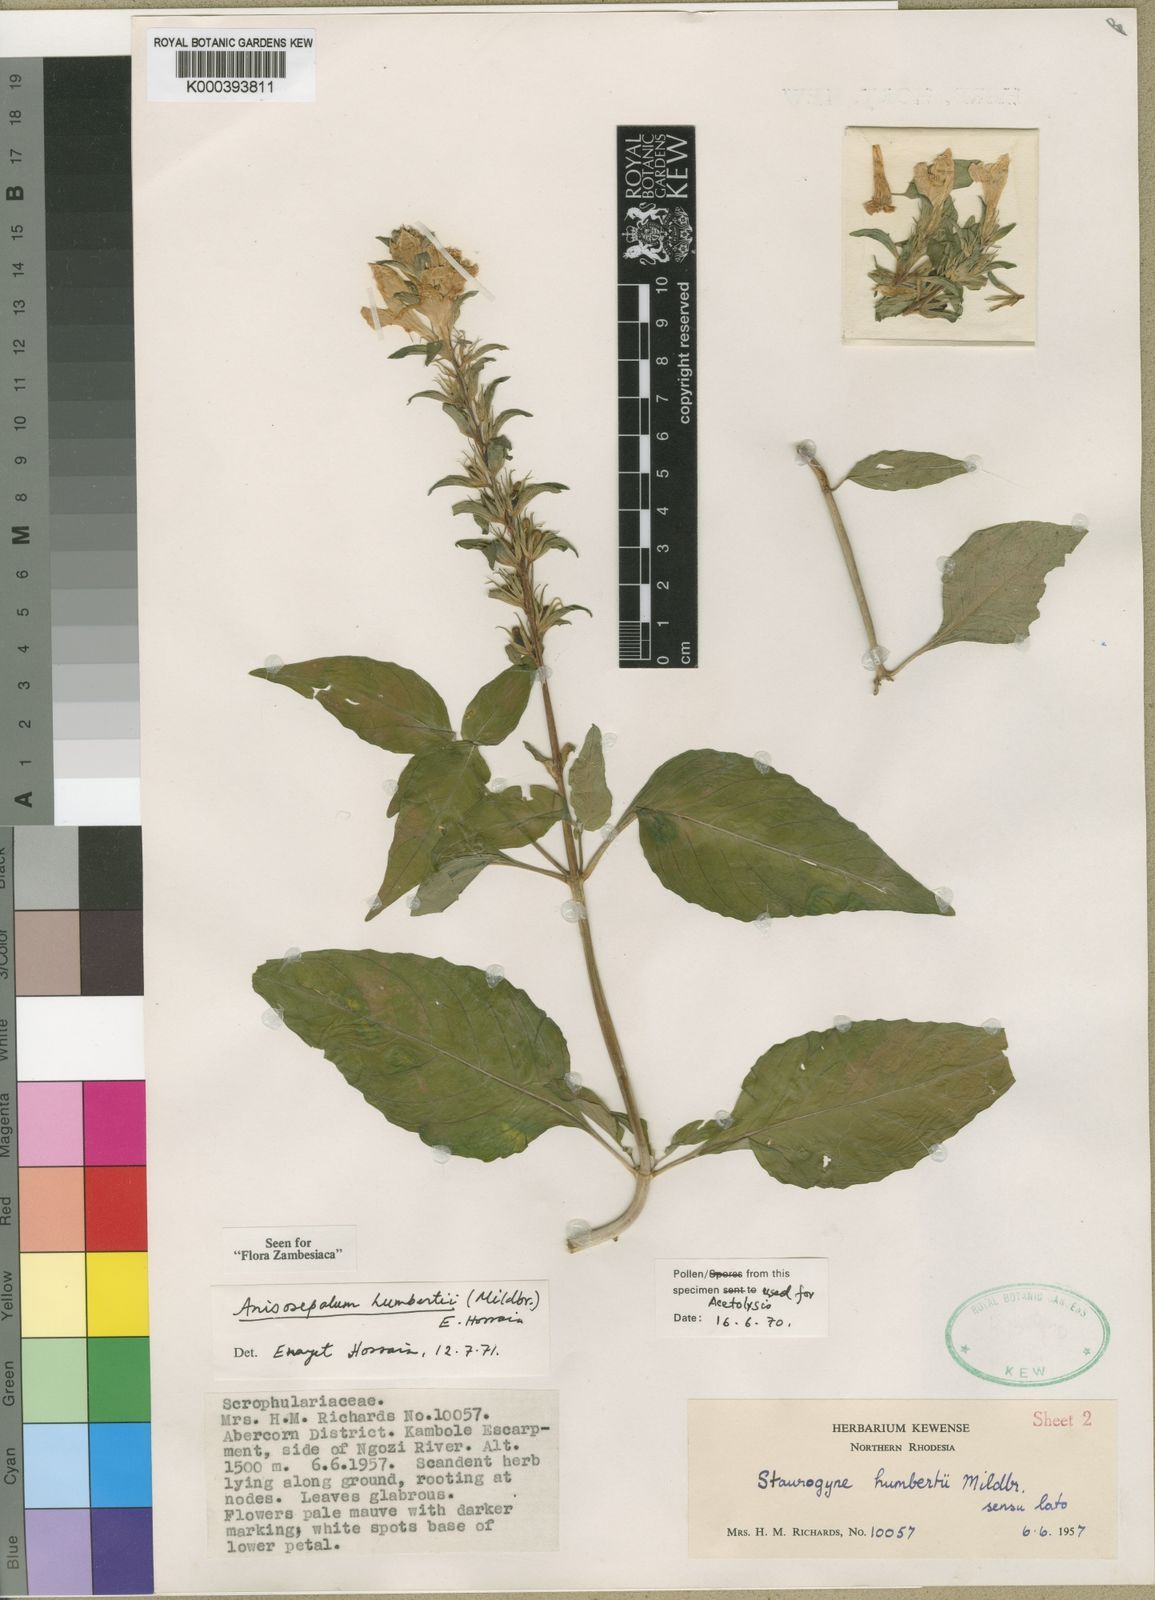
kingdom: Plantae
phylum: Tracheophyta
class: Magnoliopsida
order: Lamiales
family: Acanthaceae
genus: Anisosepalum
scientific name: Anisosepalum humbertii
